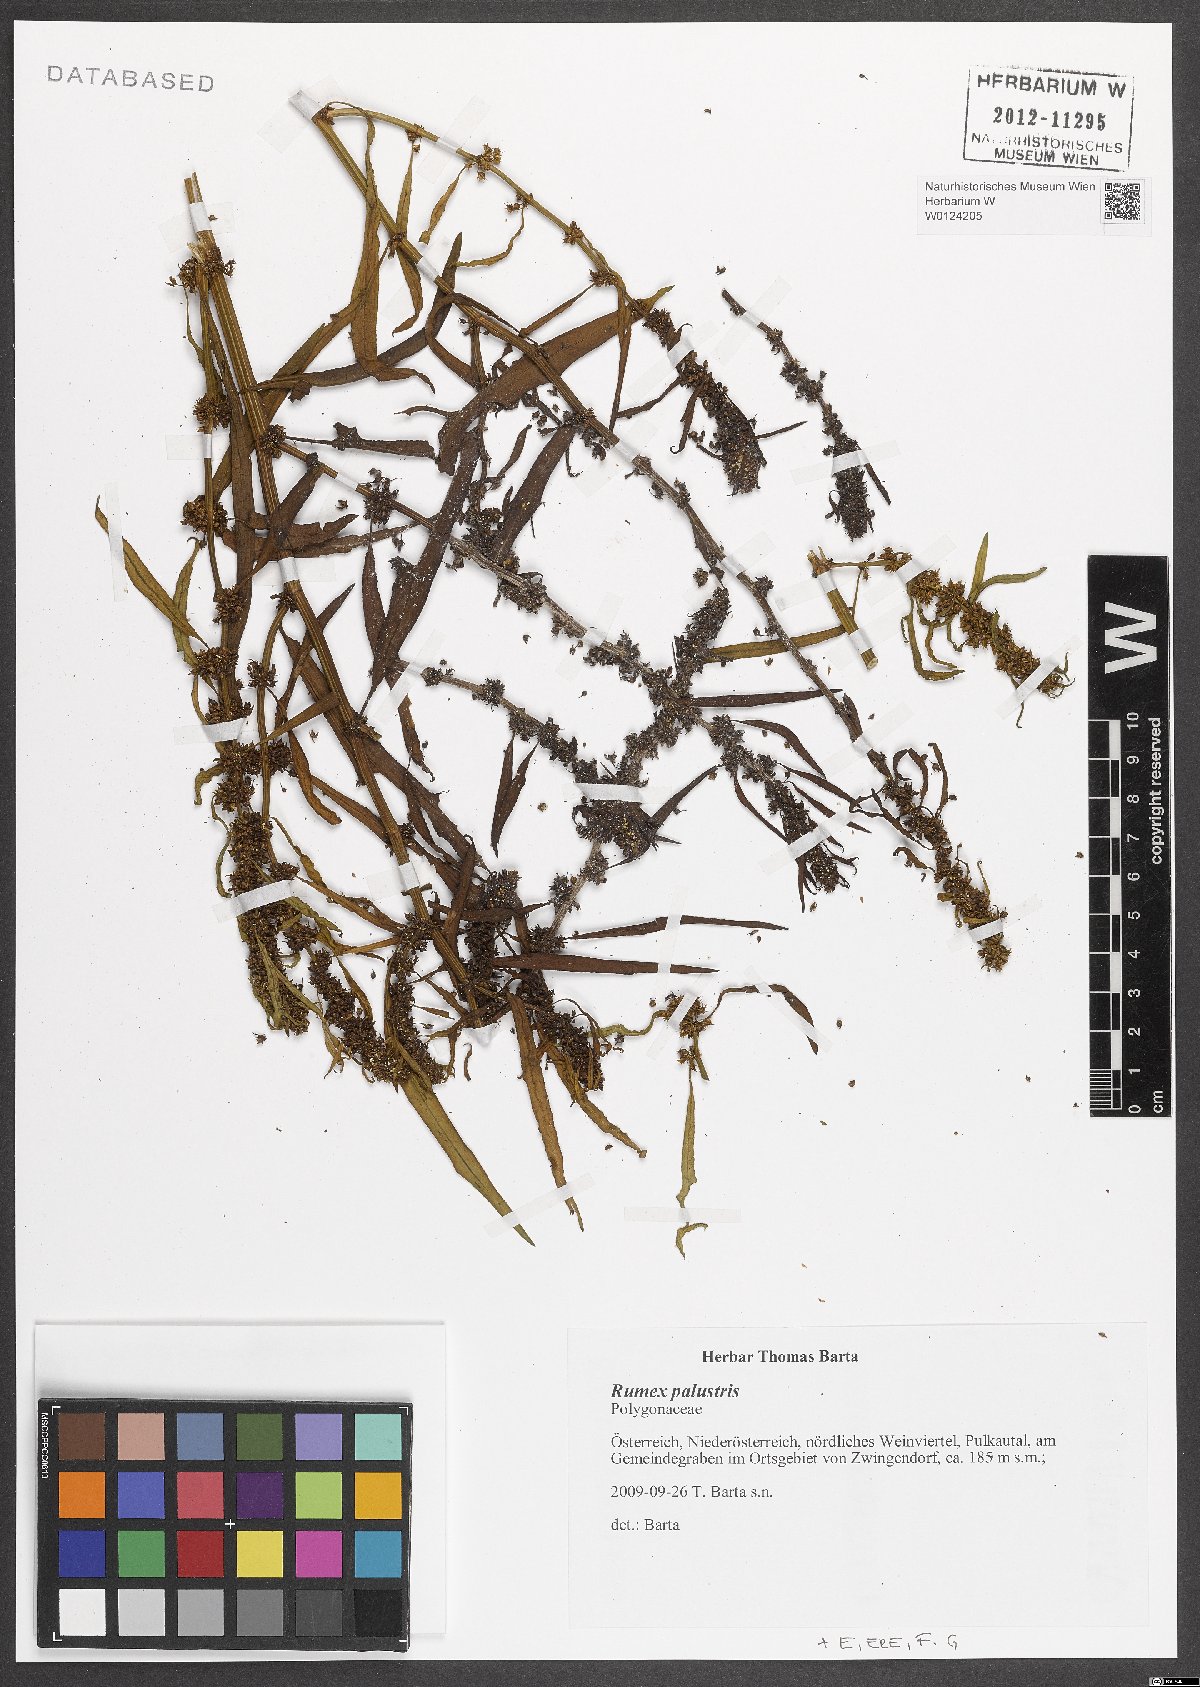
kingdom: Plantae
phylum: Tracheophyta
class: Magnoliopsida
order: Caryophyllales
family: Polygonaceae
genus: Rumex
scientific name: Rumex palustris
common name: Marsh dock
